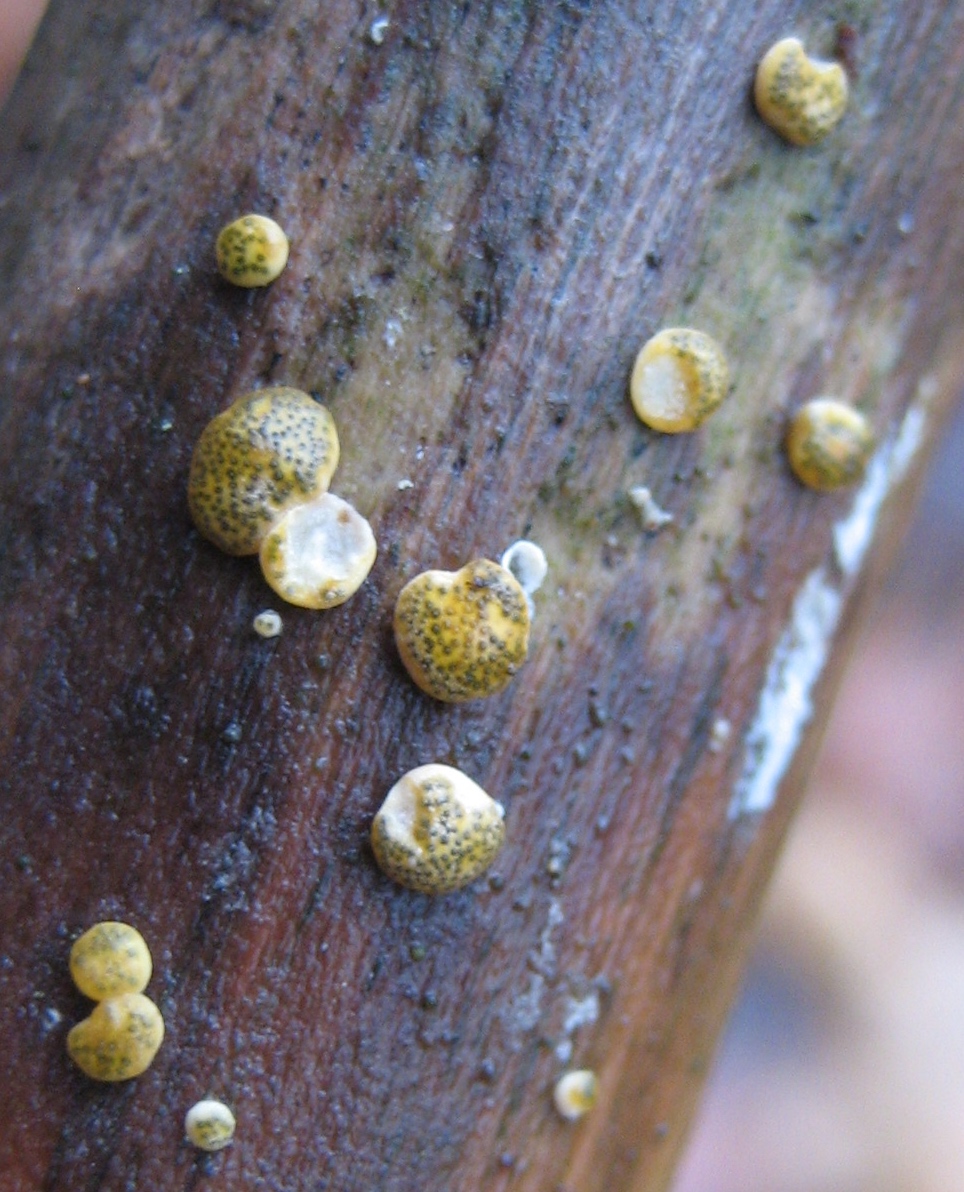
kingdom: Fungi
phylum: Ascomycota
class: Sordariomycetes
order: Hypocreales
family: Hypocreaceae
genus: Trichoderma
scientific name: Trichoderma aureoviride
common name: æggegul kødkerne
